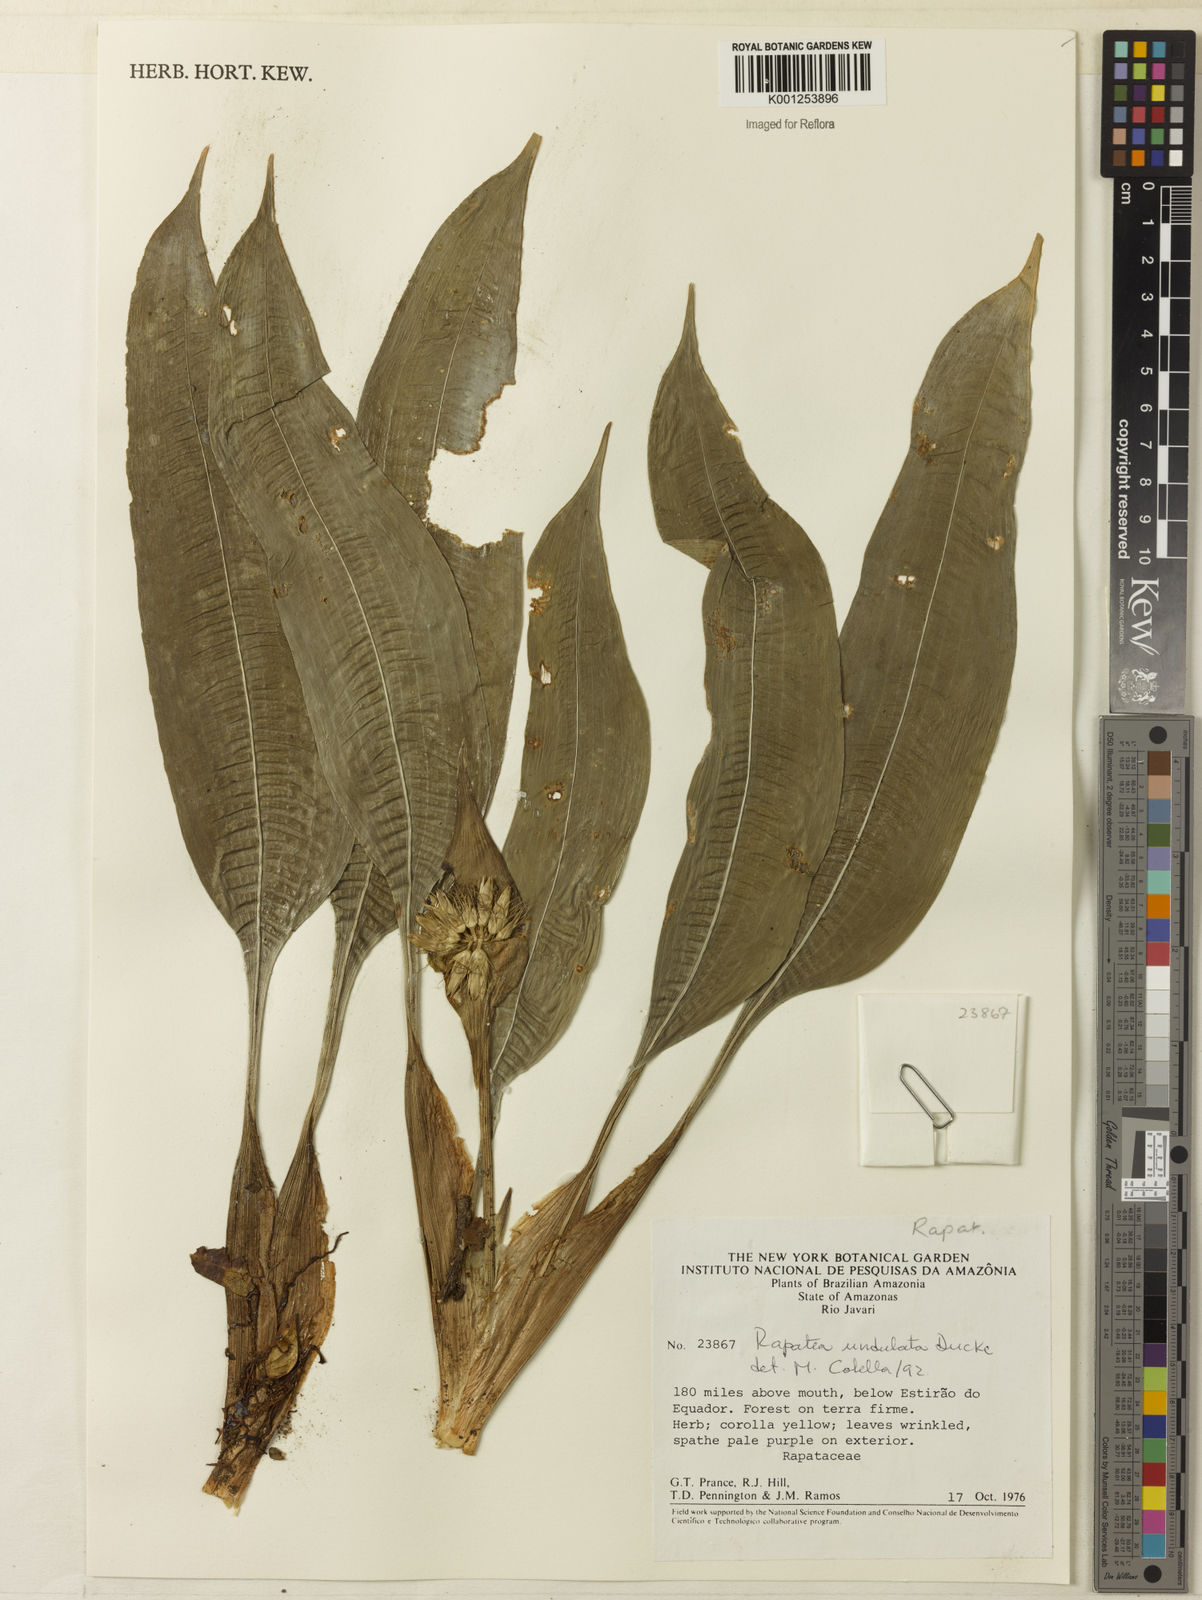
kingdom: Plantae
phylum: Tracheophyta
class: Liliopsida
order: Poales
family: Rapateaceae
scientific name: Rapateaceae
